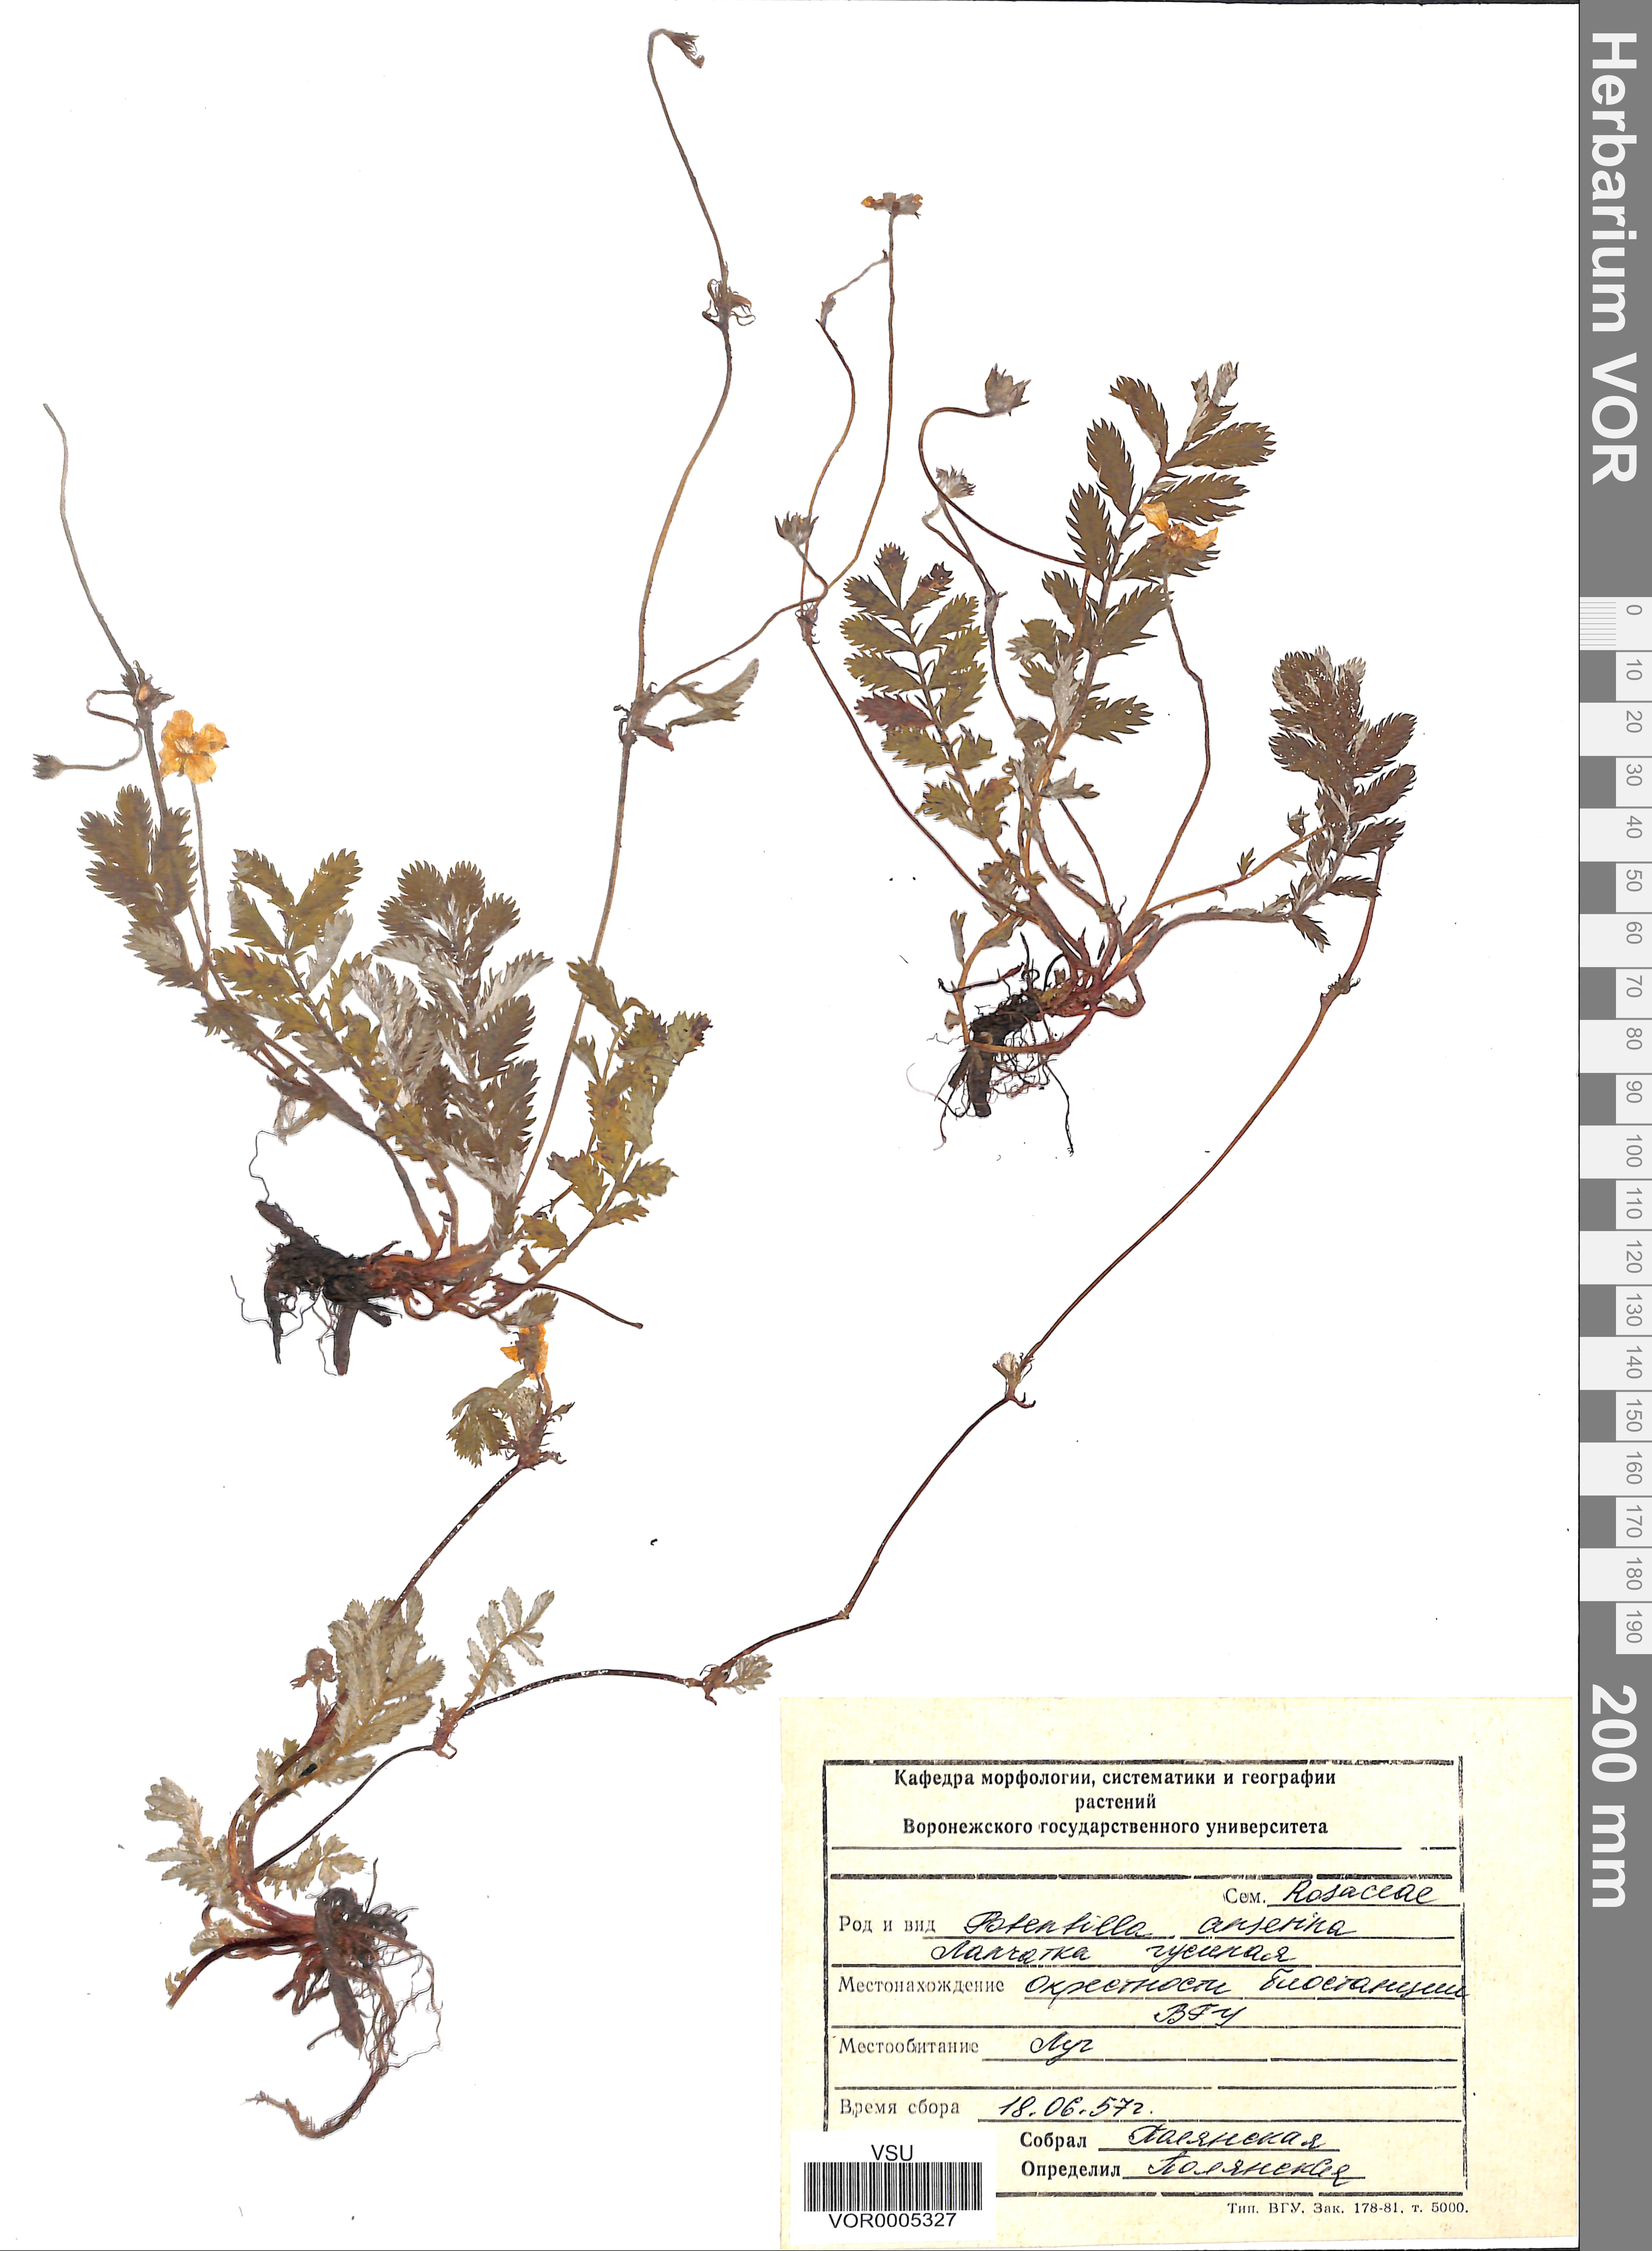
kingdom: Plantae
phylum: Tracheophyta
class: Magnoliopsida
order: Rosales
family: Rosaceae
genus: Argentina
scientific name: Argentina anserina
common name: Common silverweed
